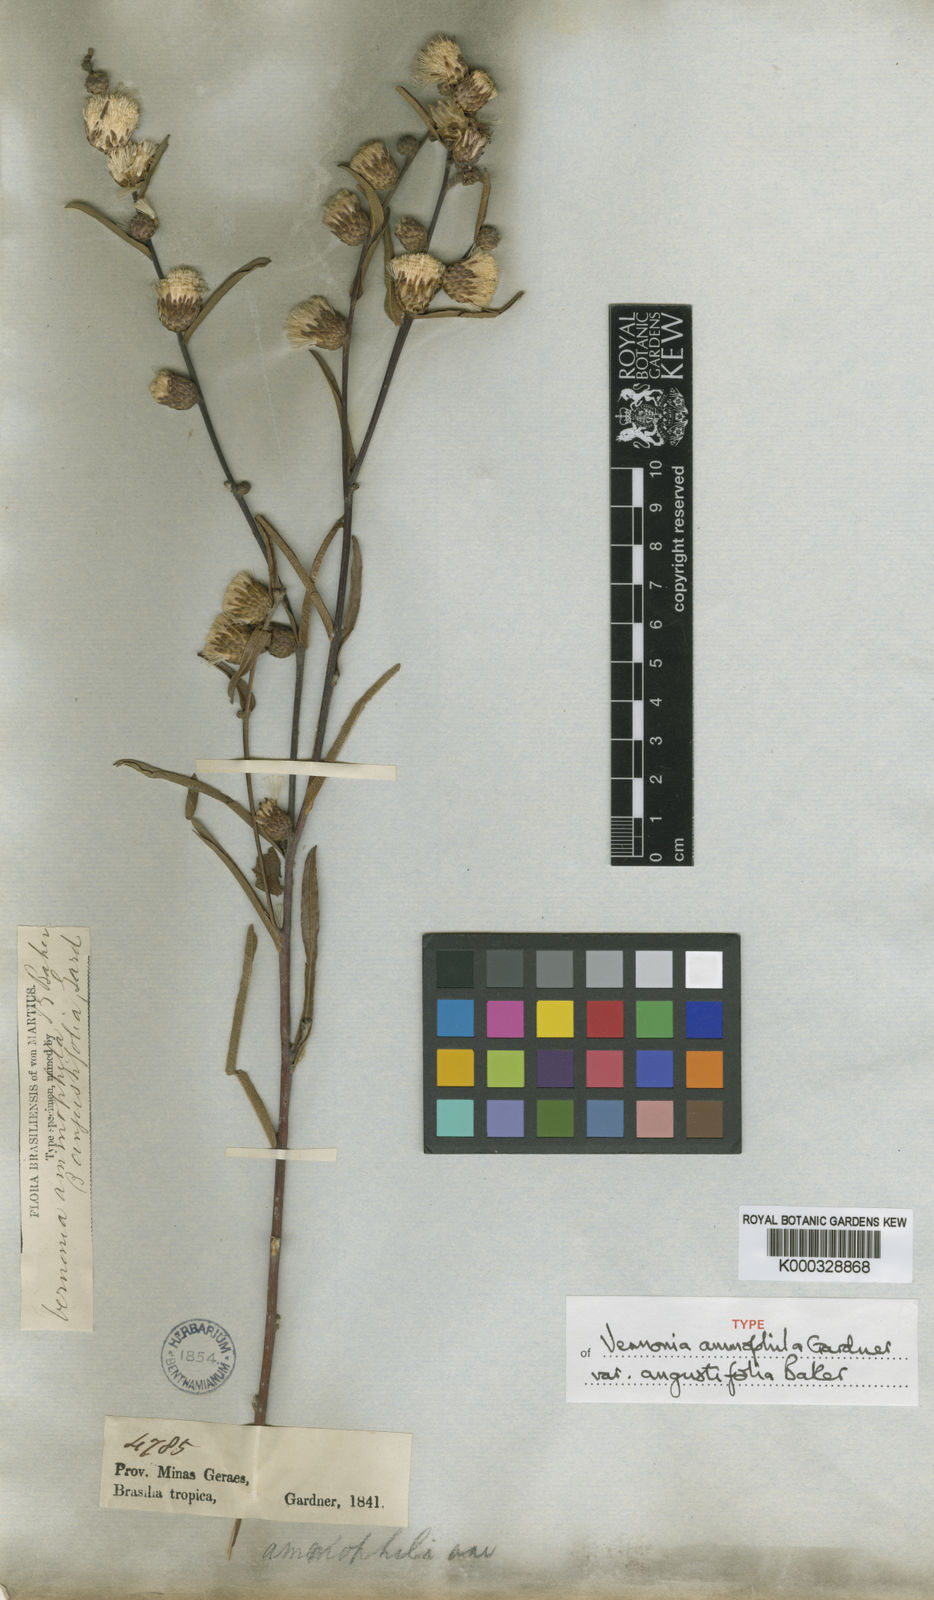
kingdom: Plantae
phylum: Tracheophyta
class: Magnoliopsida
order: Asterales
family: Asteraceae
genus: Lessingianthus
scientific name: Lessingianthus ammophilus
